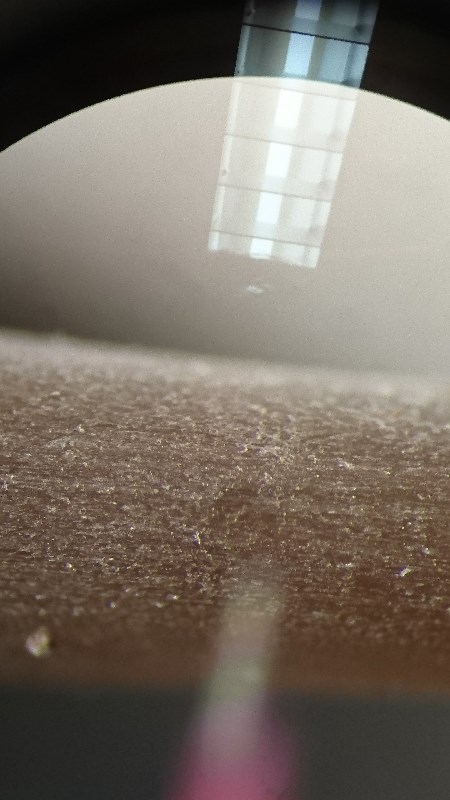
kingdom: Fungi
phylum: Basidiomycota
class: Agaricomycetes
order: Agaricales
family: Mycenaceae
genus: Mycena
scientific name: Mycena
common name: huesvamp
